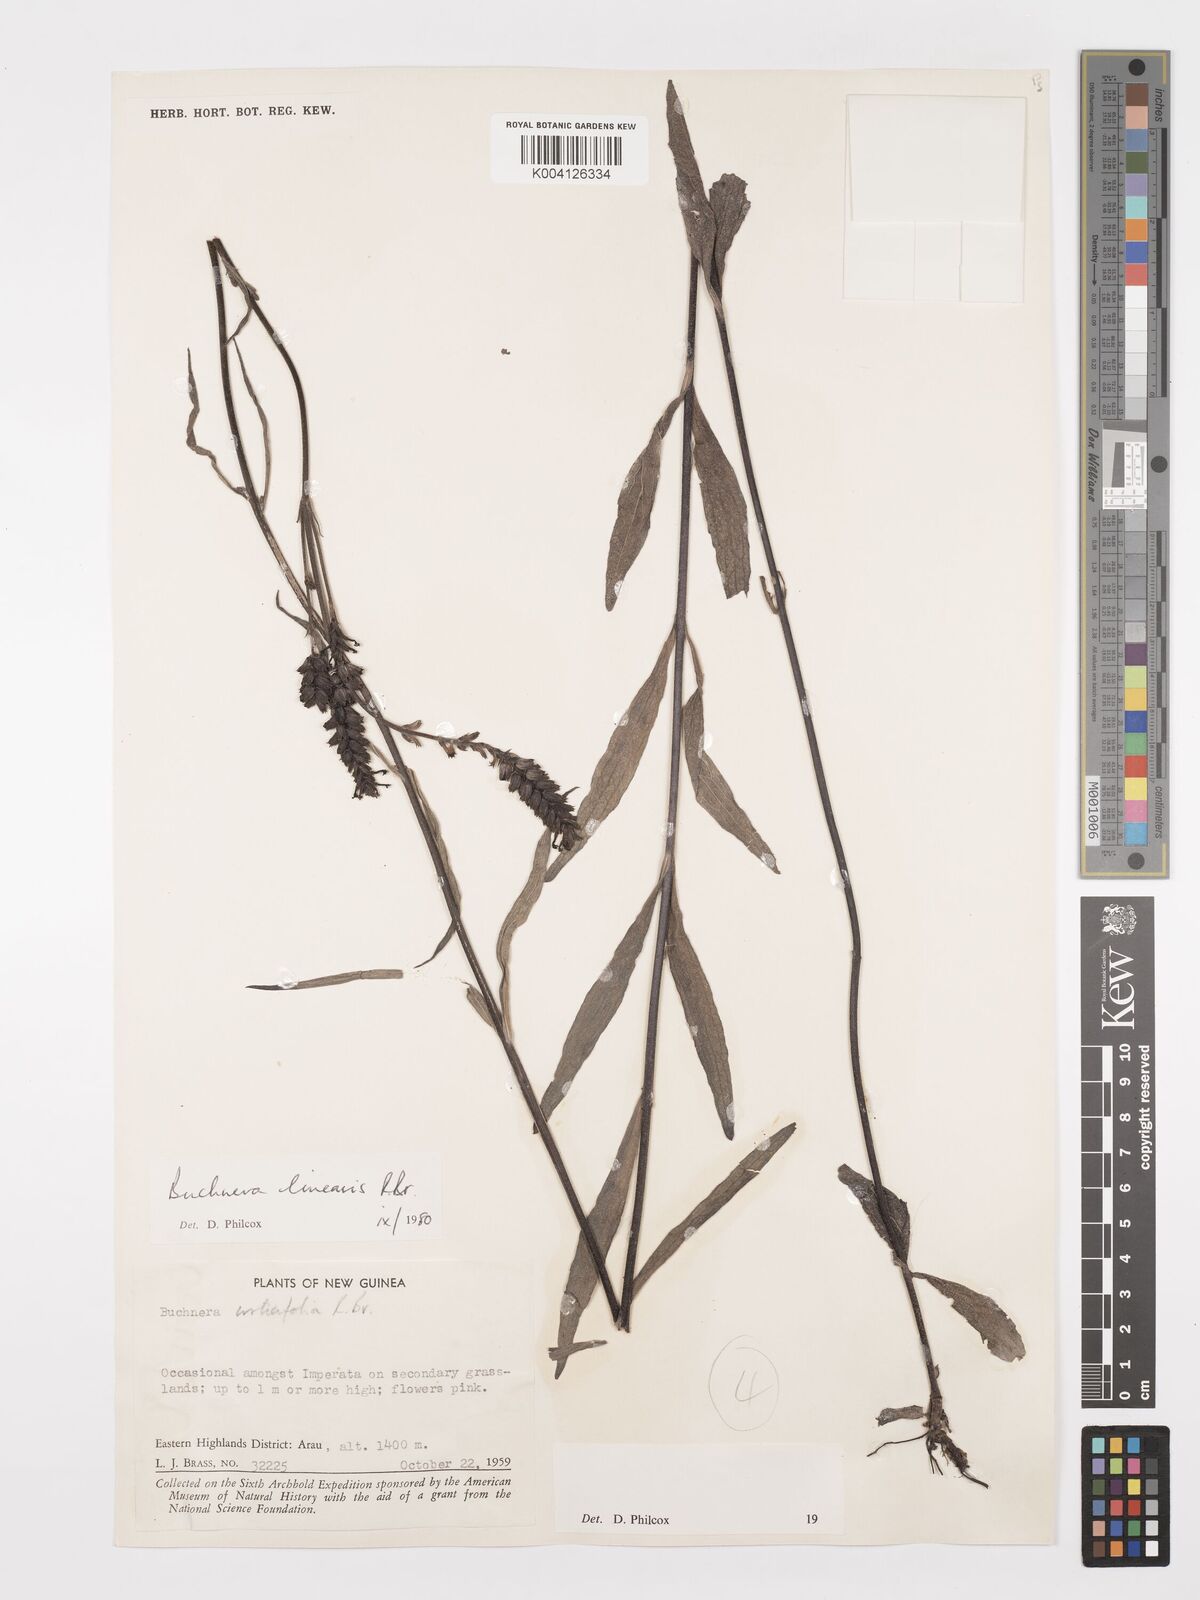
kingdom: Plantae
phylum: Tracheophyta
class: Magnoliopsida
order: Lamiales
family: Orobanchaceae
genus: Buchnera
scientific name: Buchnera linearis
